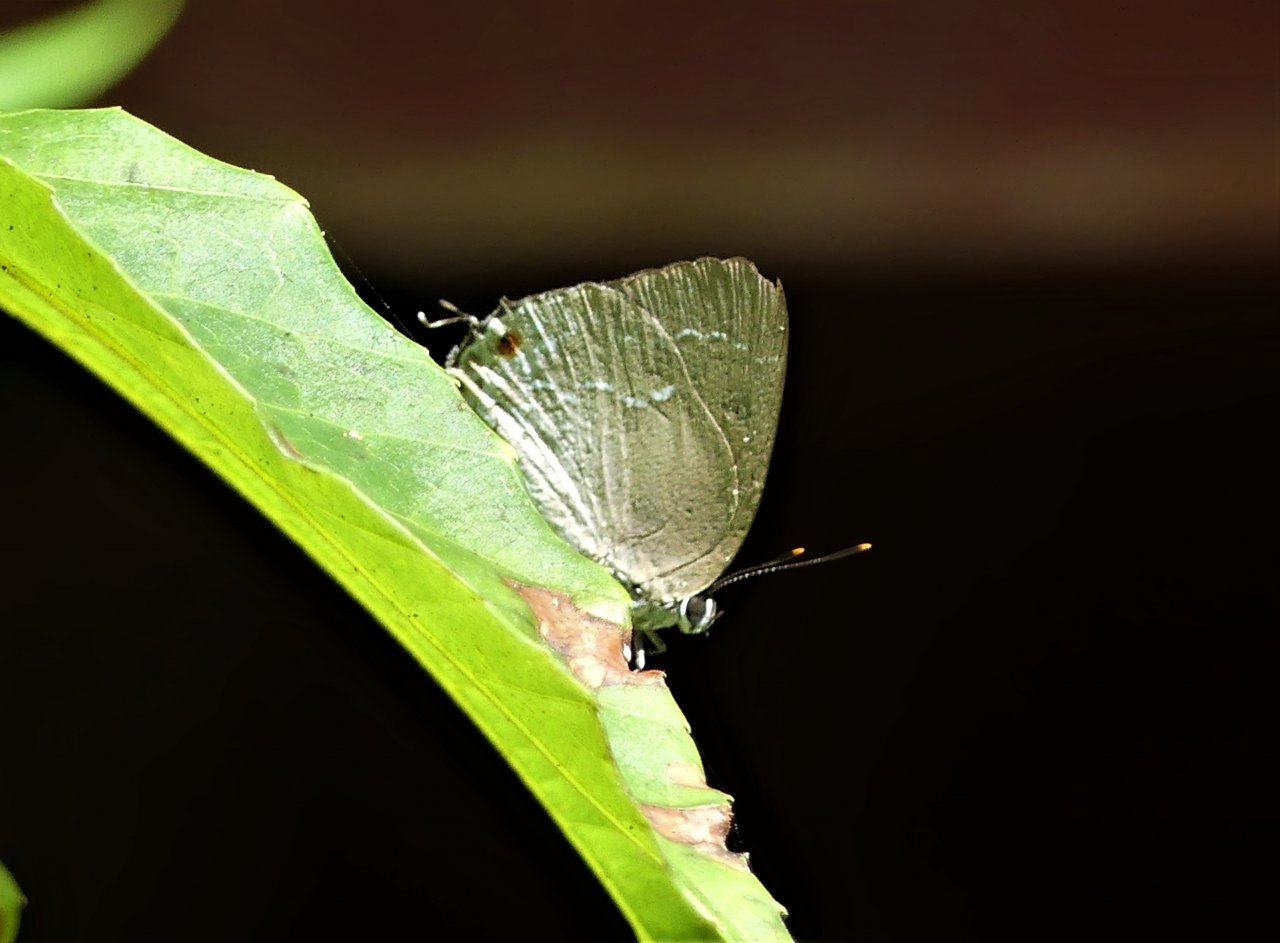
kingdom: Animalia
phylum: Arthropoda
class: Insecta
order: Lepidoptera
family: Lycaenidae
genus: Strephonota
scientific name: Strephonota tephraeus
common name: Pearly-Gray Hairstreak
